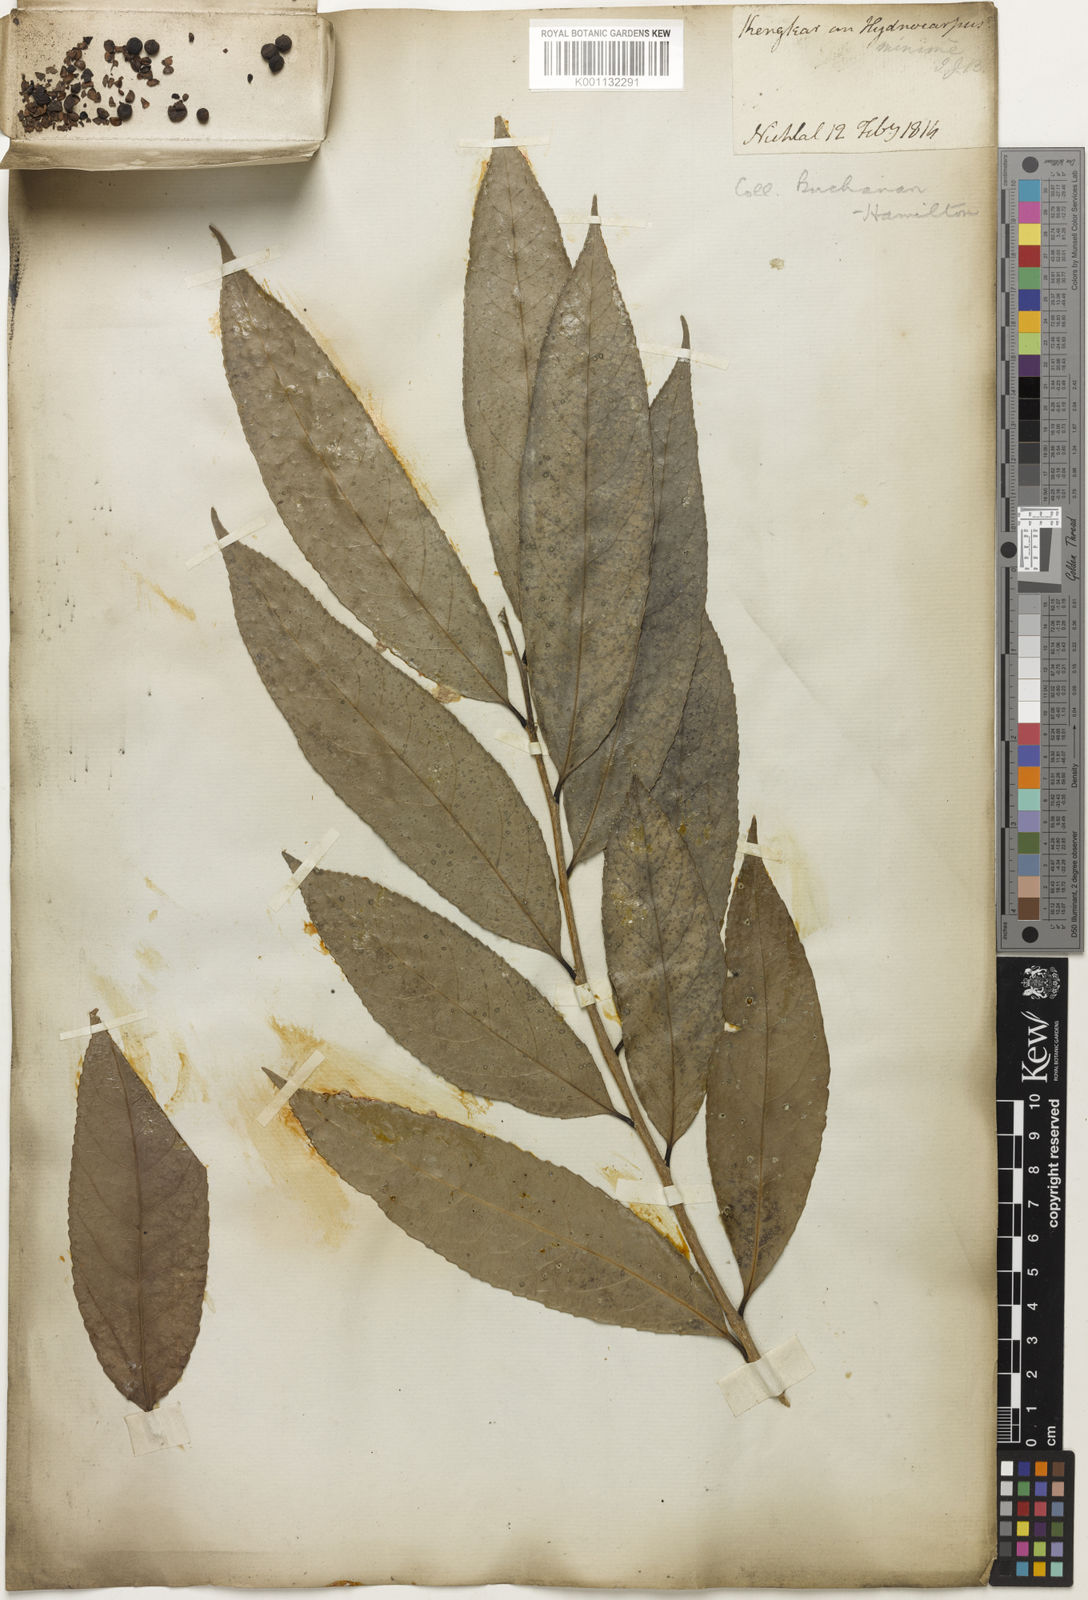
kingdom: Plantae
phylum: Tracheophyta
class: Magnoliopsida
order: Malvales
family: Bixaceae
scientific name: Bixaceae
